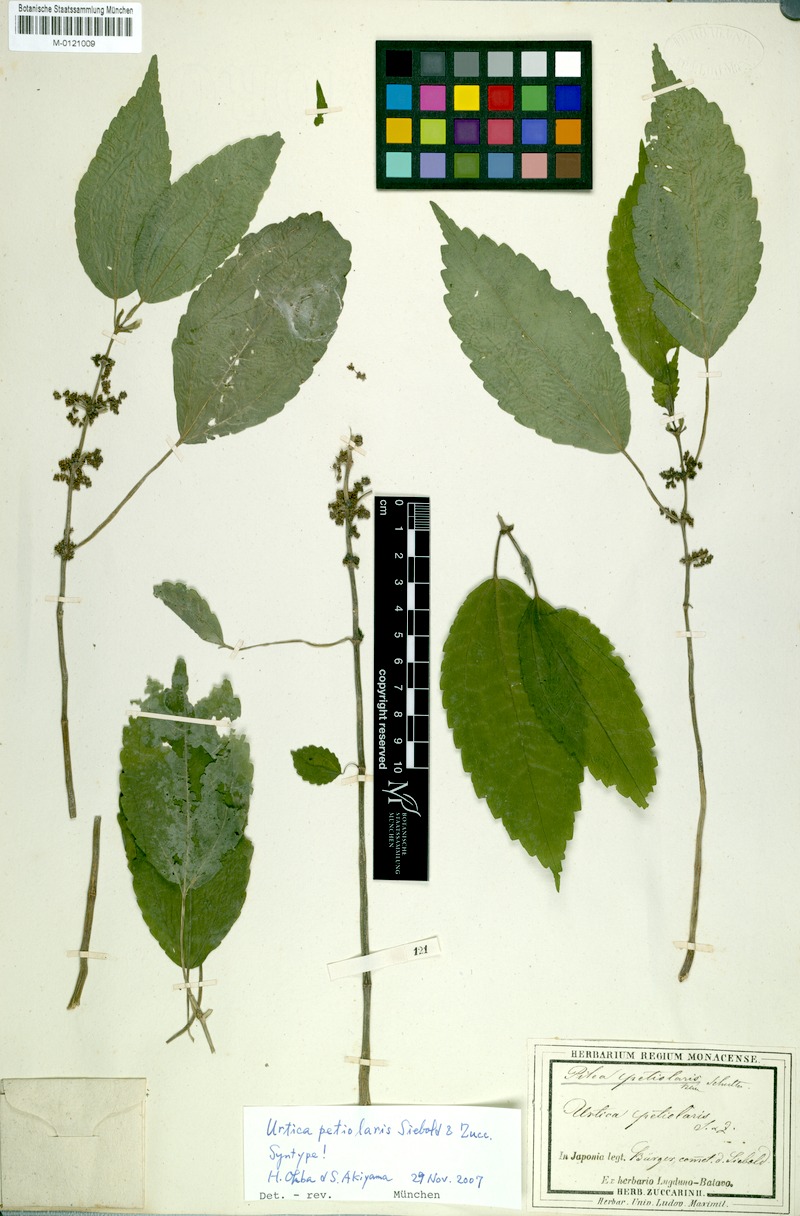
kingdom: Plantae
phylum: Tracheophyta
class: Magnoliopsida
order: Rosales
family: Urticaceae
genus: Pilea
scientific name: Pilea angulata
